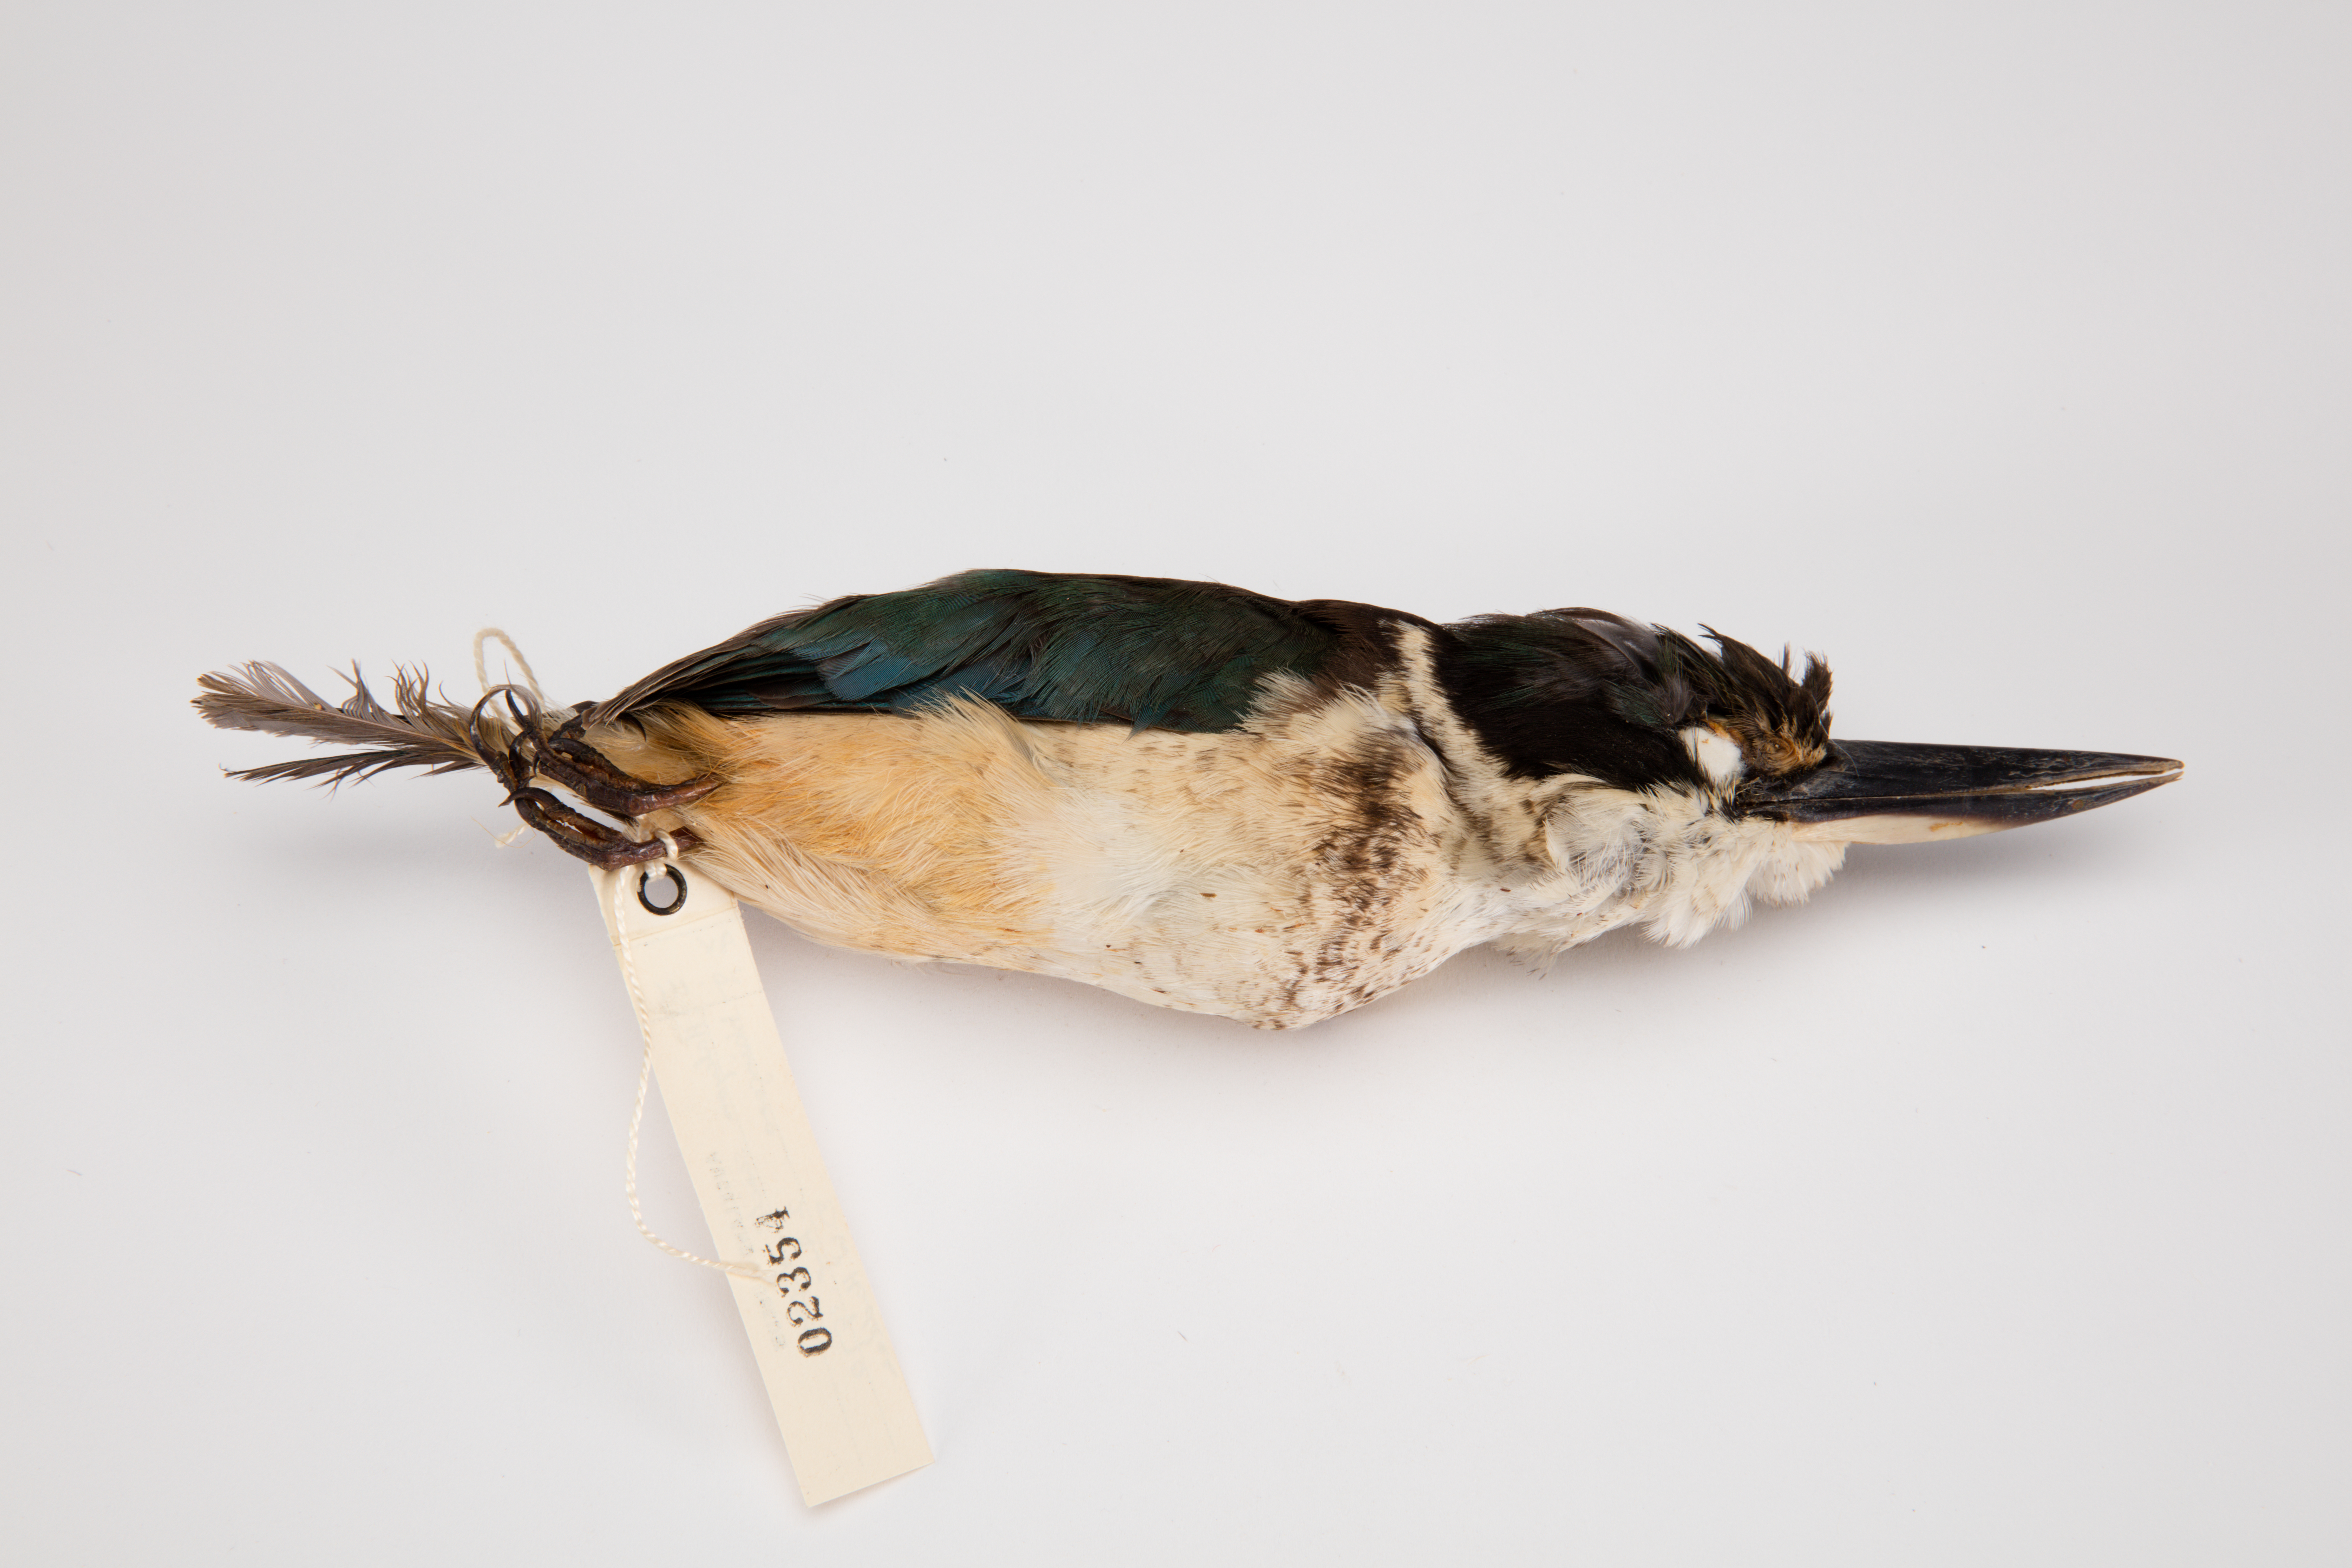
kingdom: Animalia
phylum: Chordata
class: Aves
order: Coraciiformes
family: Alcedinidae
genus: Todiramphus
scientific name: Todiramphus sanctus
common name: Sacred kingfisher
